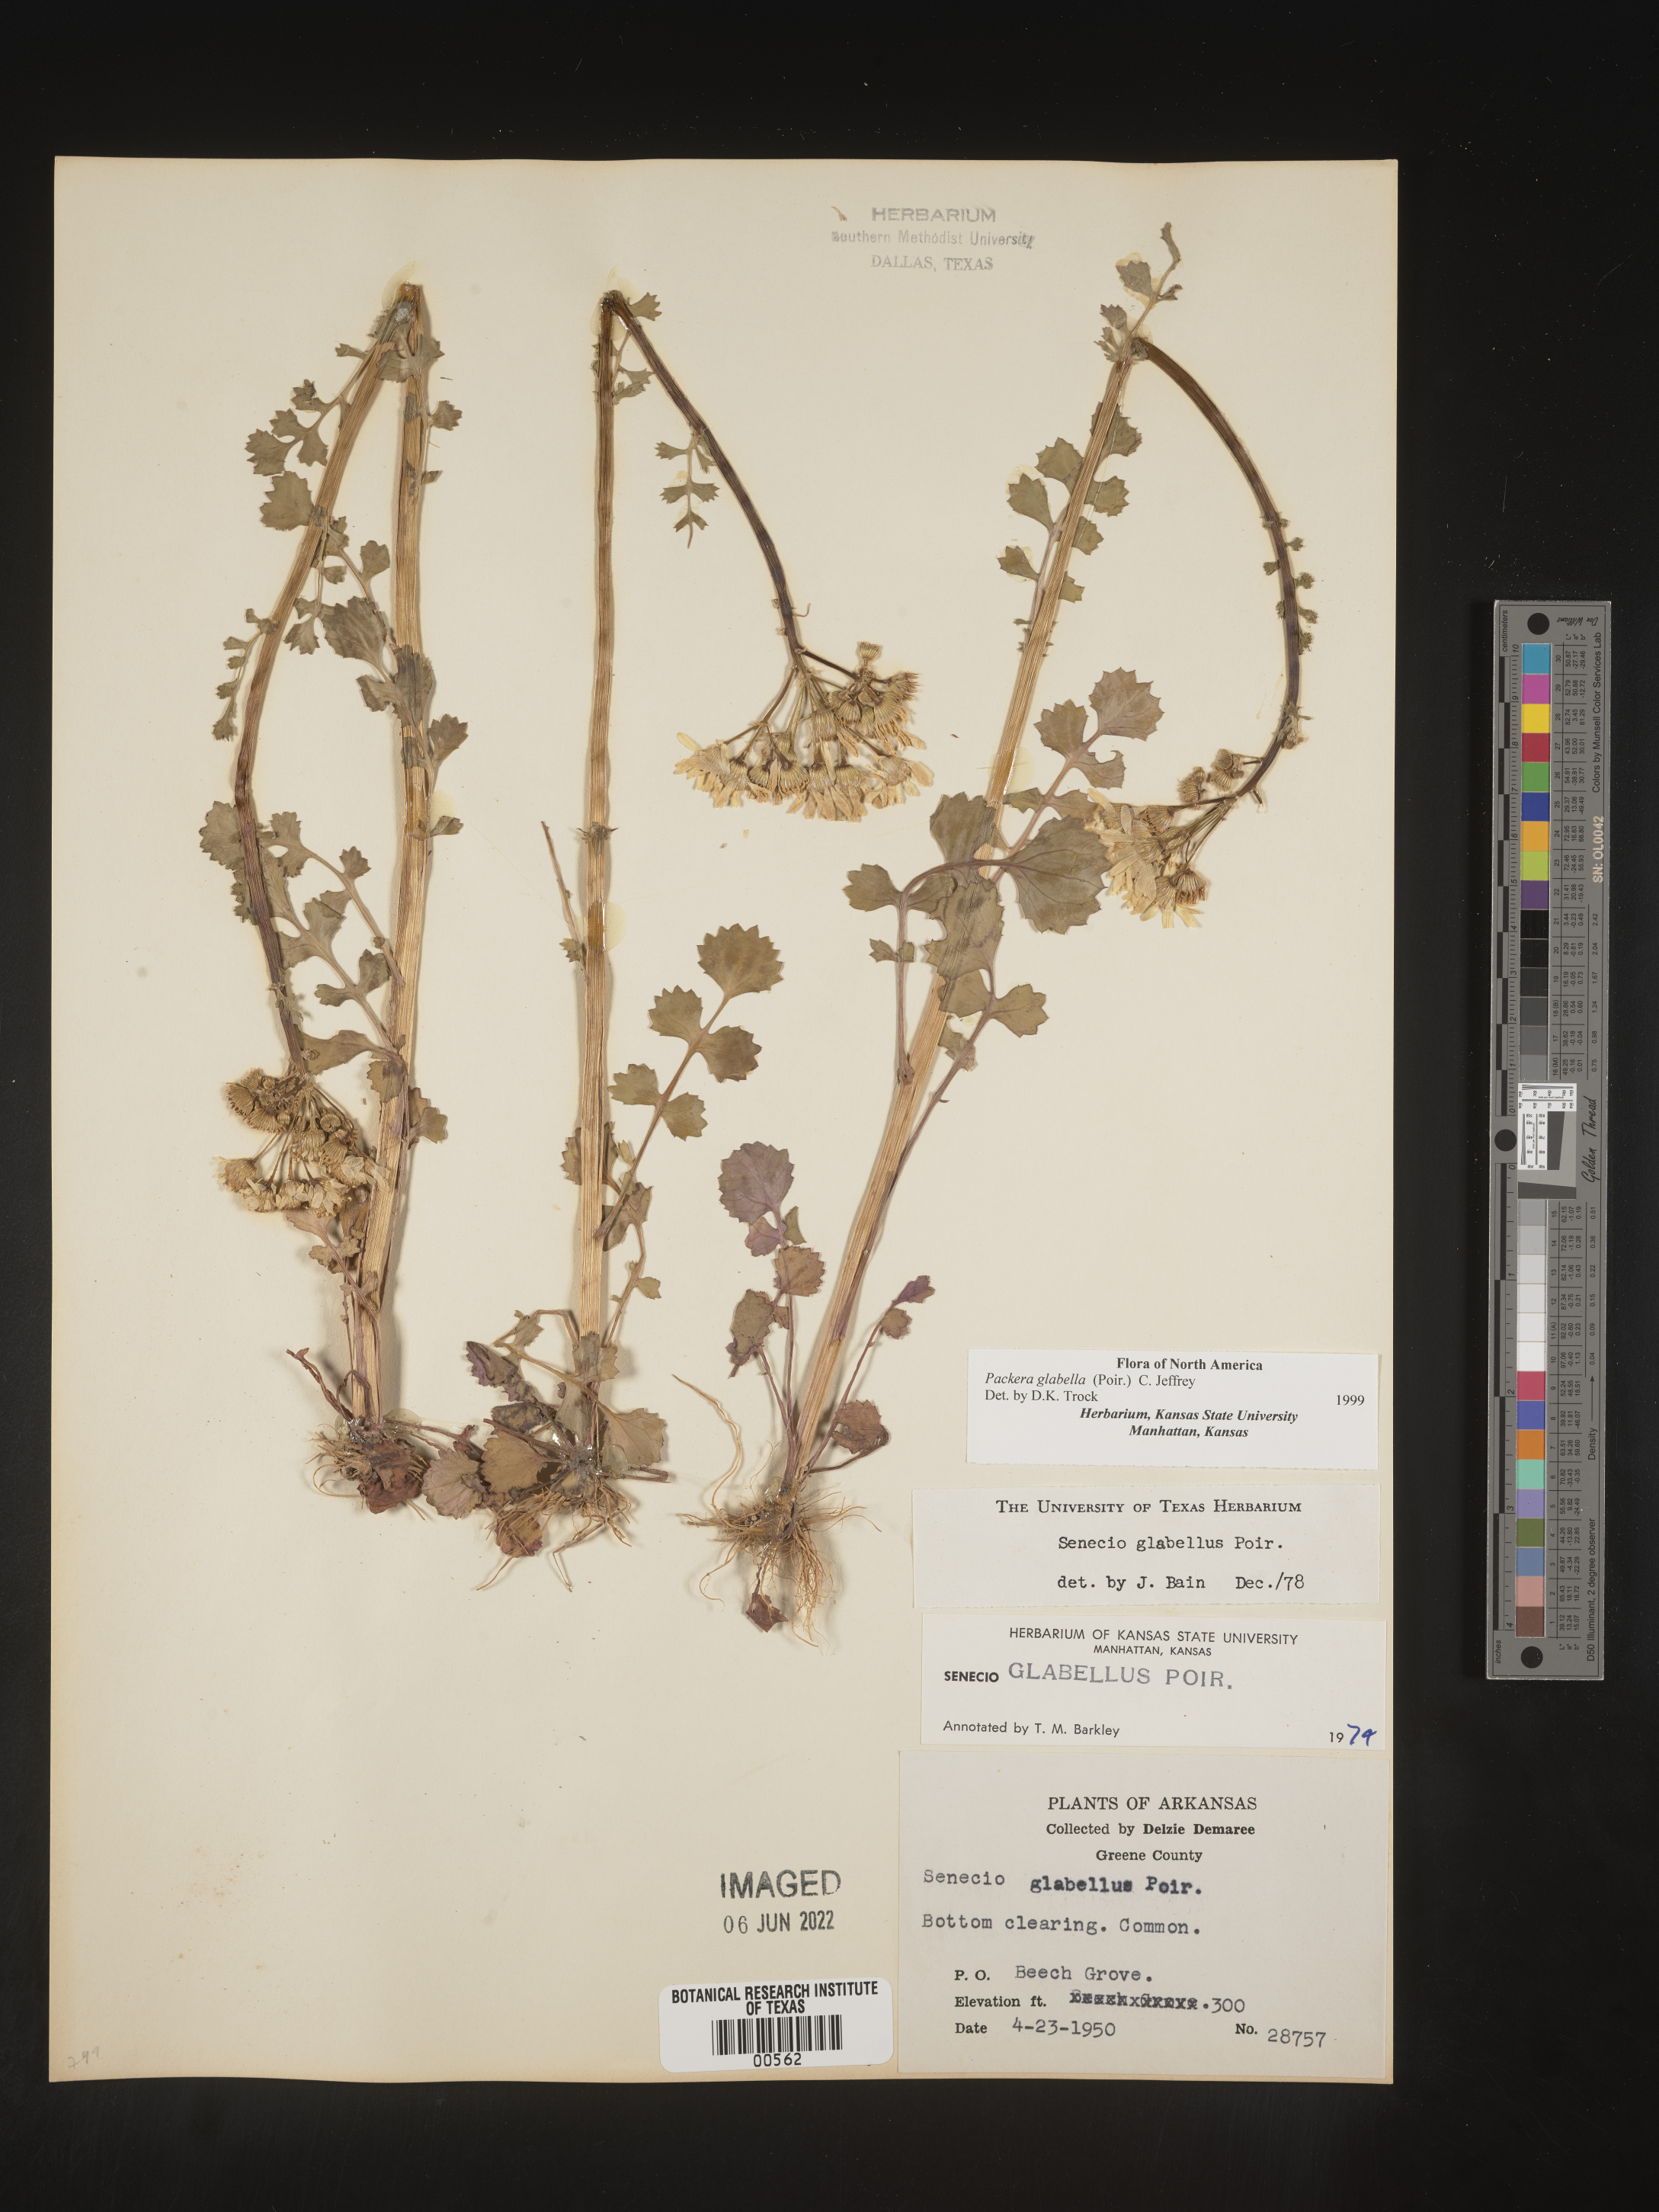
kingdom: Plantae
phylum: Tracheophyta
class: Magnoliopsida
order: Asterales
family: Asteraceae
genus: Packera
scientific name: Packera glabella
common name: Butterweed
